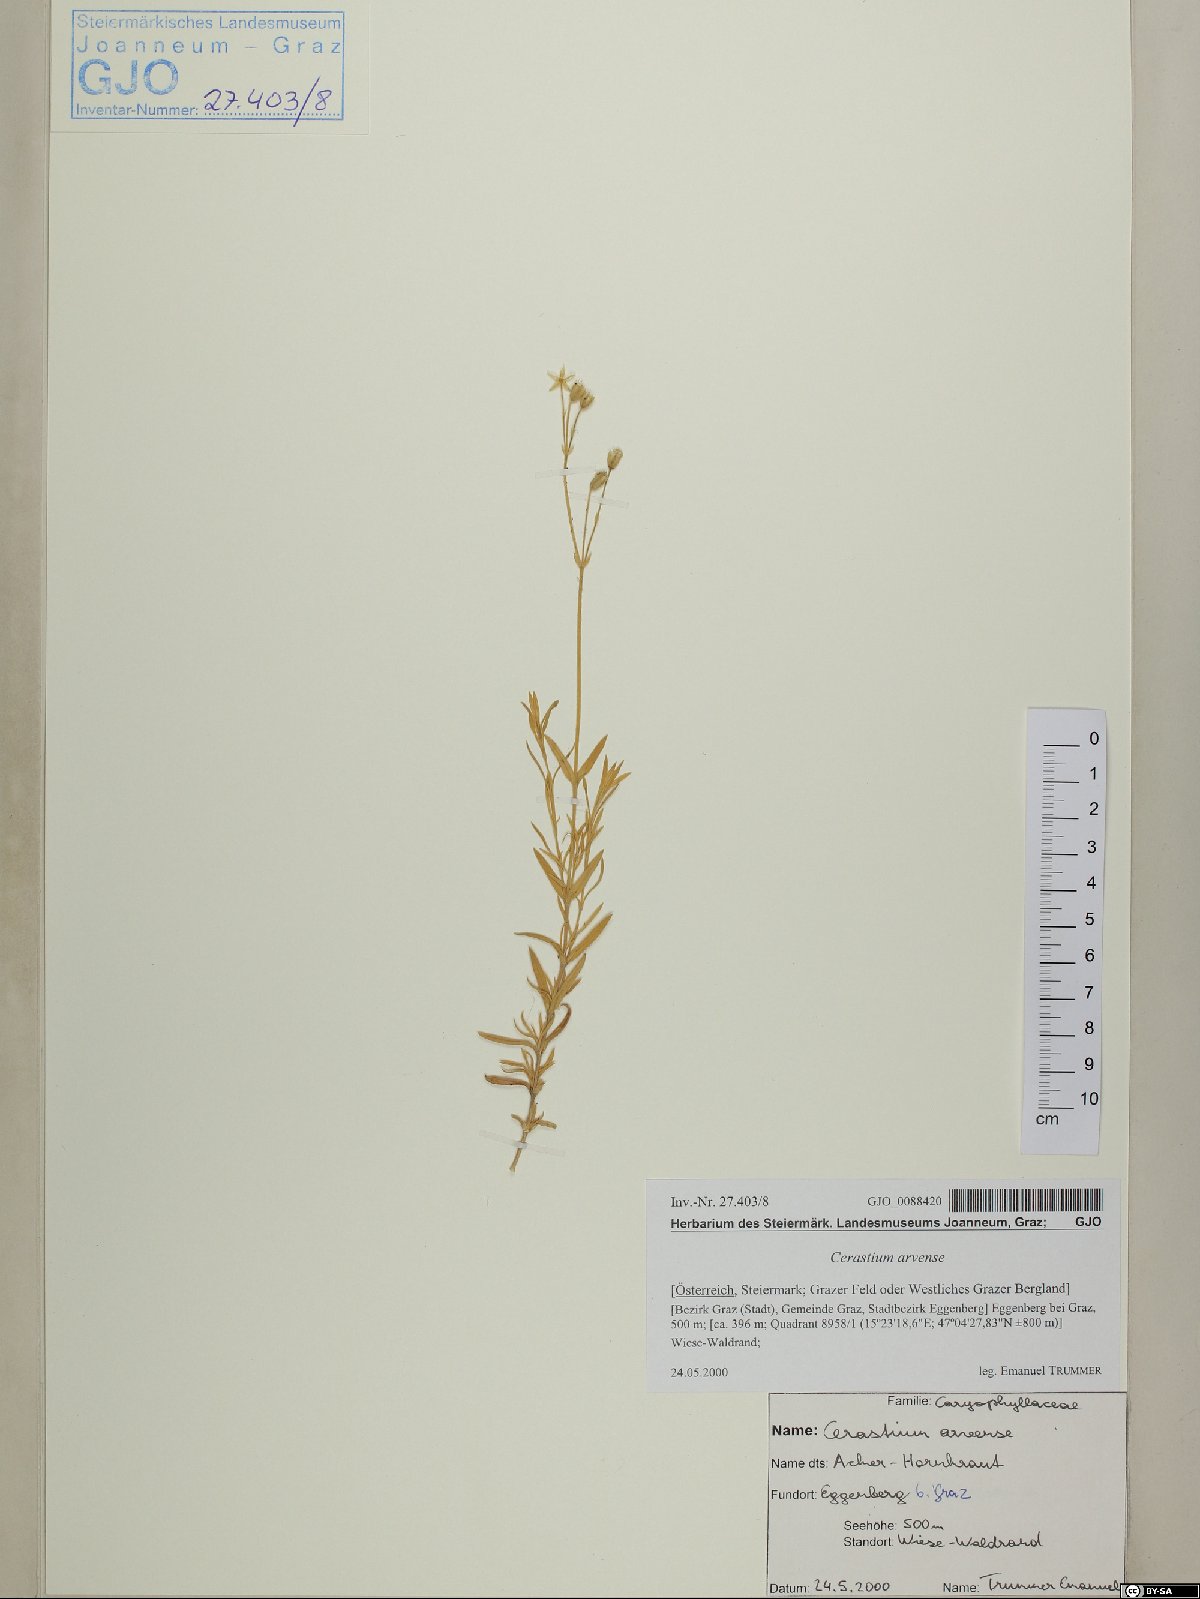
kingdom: Plantae
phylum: Tracheophyta
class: Magnoliopsida
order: Caryophyllales
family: Caryophyllaceae
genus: Cerastium
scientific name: Cerastium arvense
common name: Field mouse-ear
